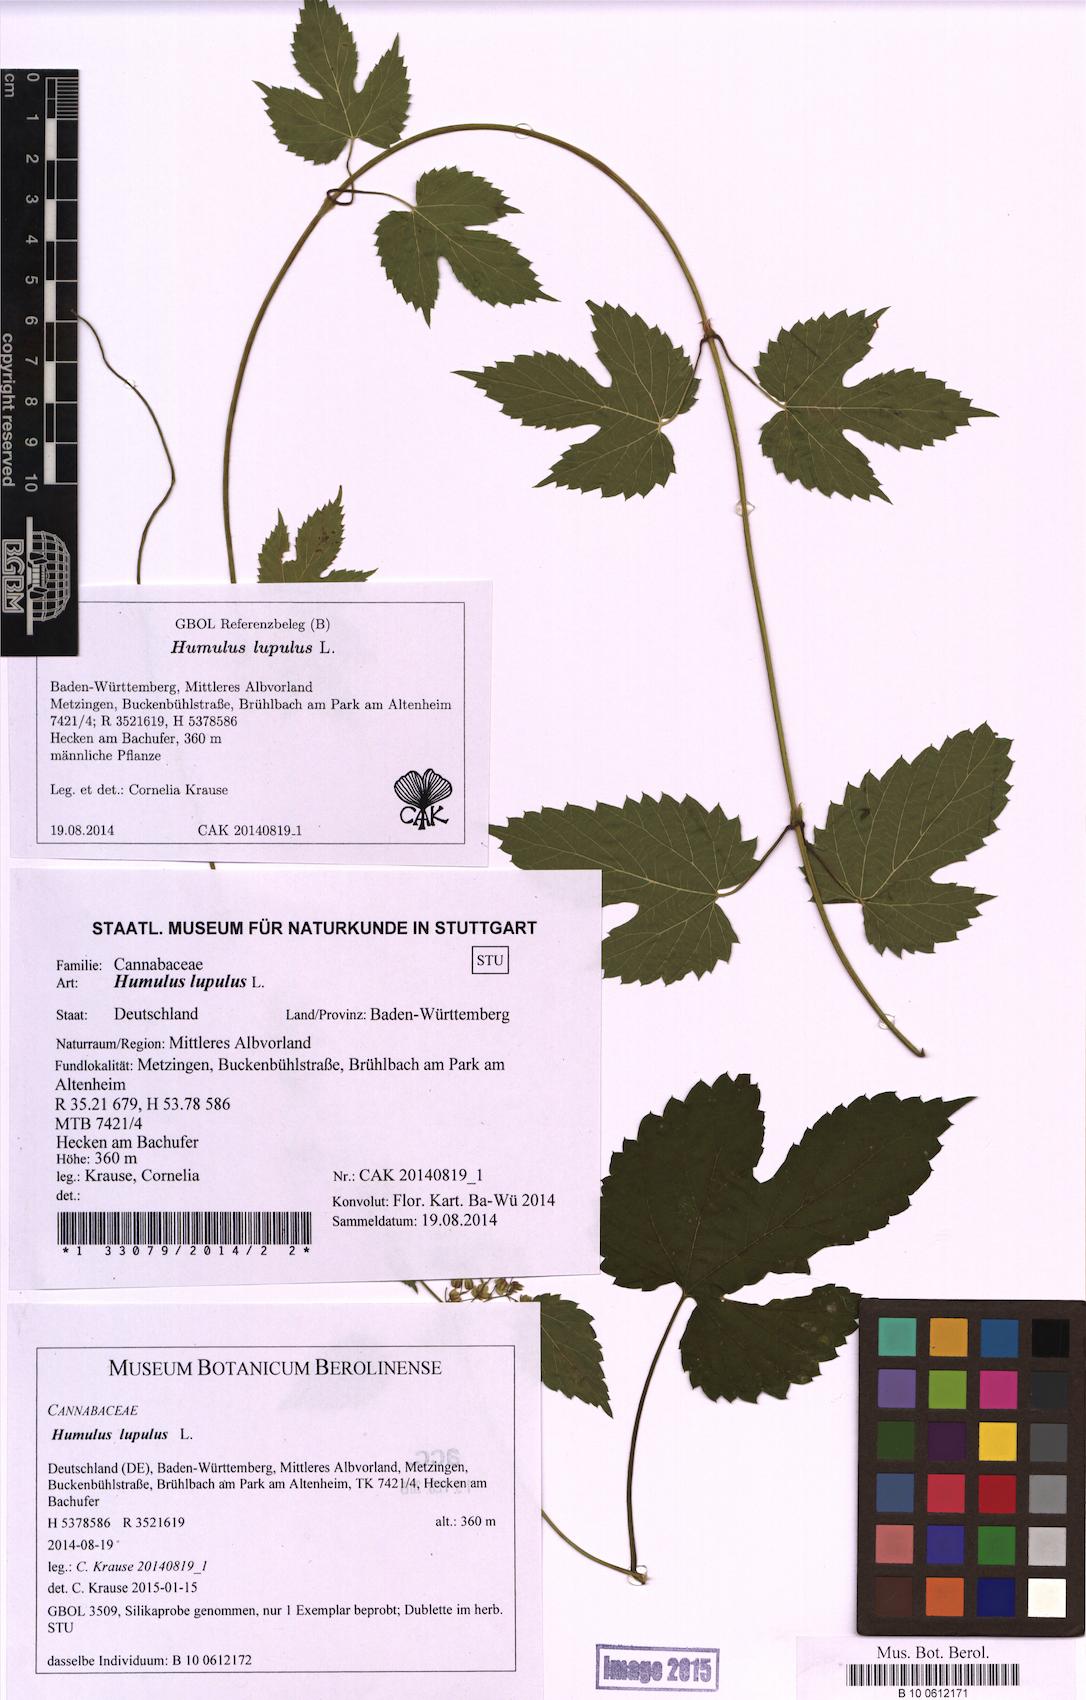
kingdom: Plantae
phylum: Tracheophyta
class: Magnoliopsida
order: Rosales
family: Cannabaceae
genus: Humulus
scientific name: Humulus lupulus
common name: Hop
